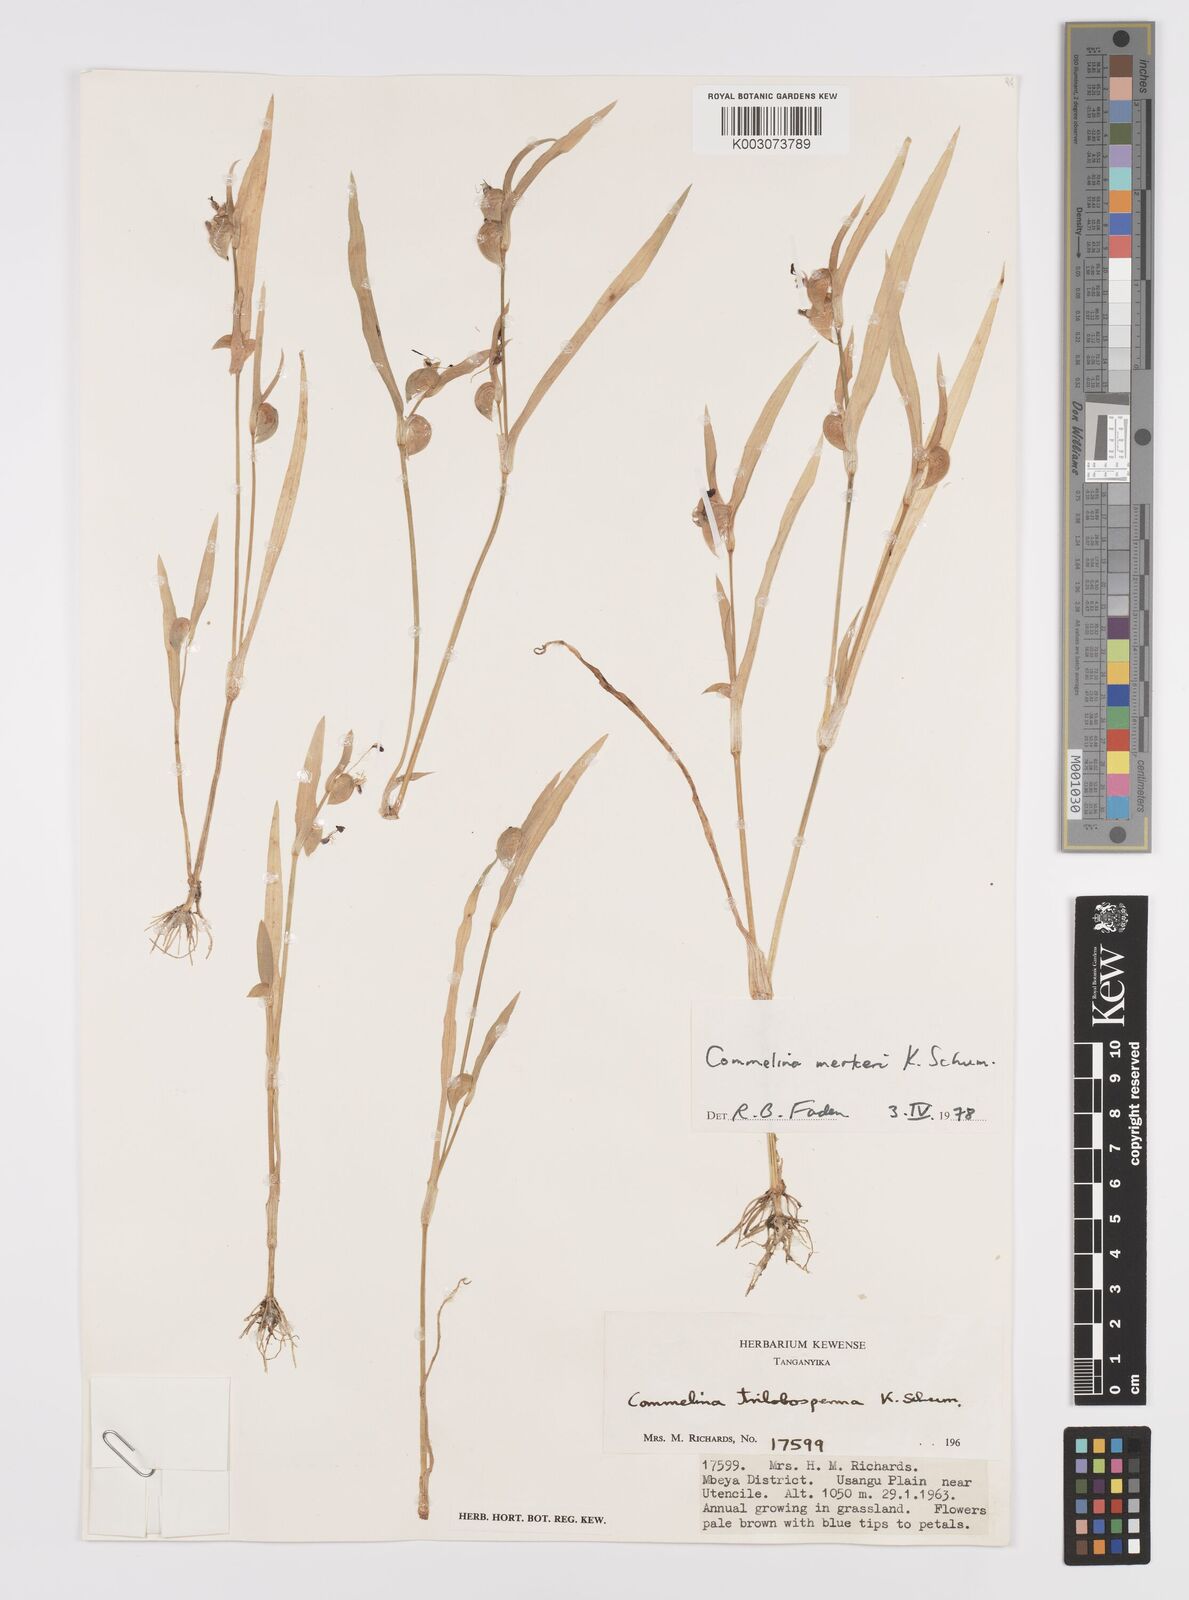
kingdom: Plantae
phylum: Tracheophyta
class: Liliopsida
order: Commelinales
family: Commelinaceae
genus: Commelina
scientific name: Commelina merkeri
